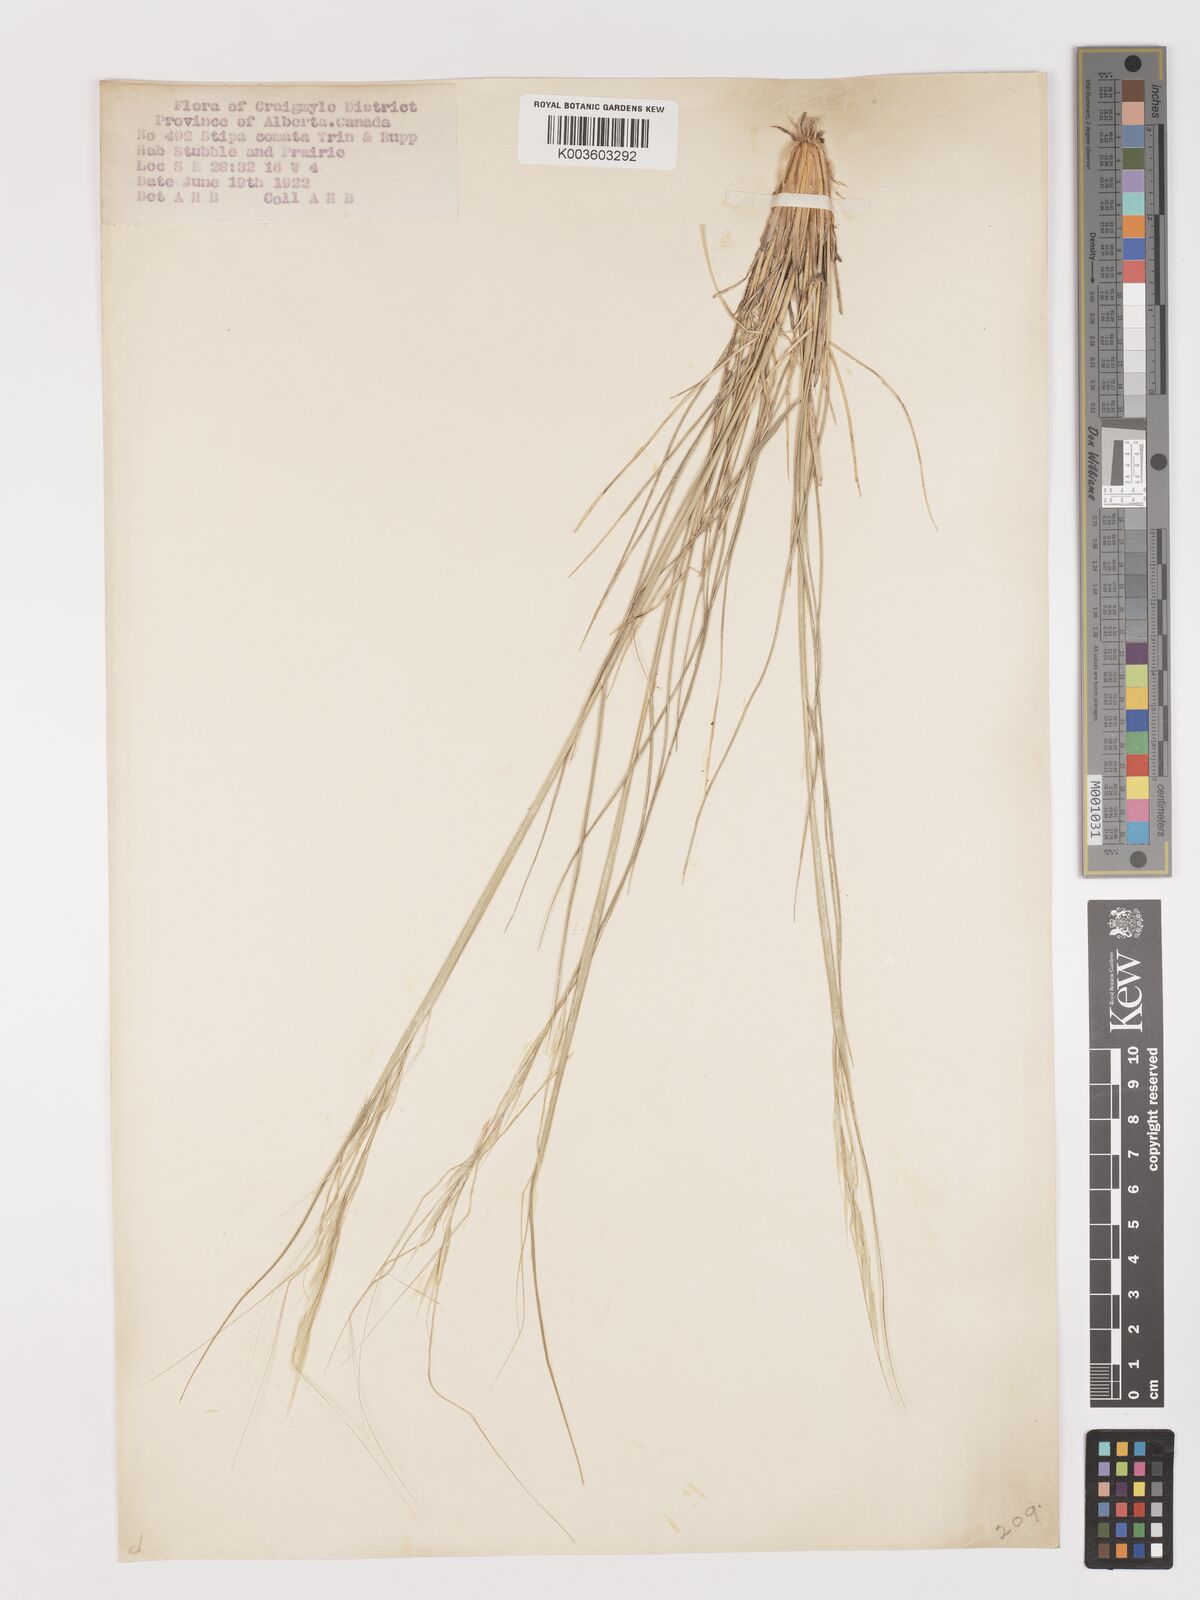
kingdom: Plantae
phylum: Tracheophyta
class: Liliopsida
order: Poales
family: Poaceae
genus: Stipa
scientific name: Stipa
